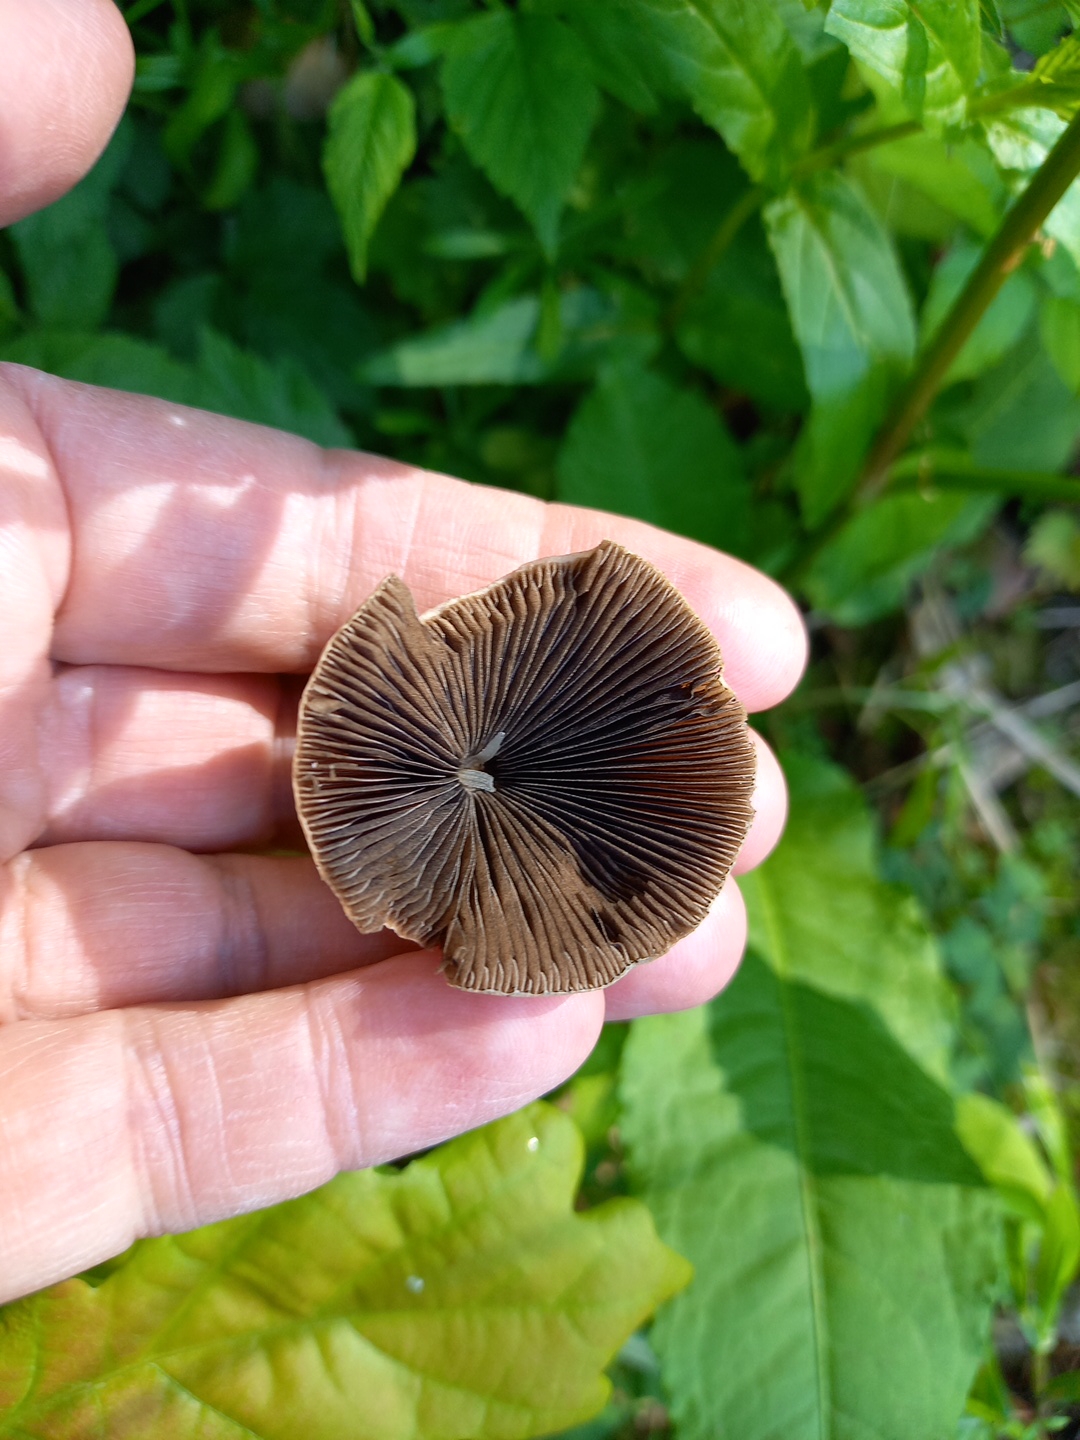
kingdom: Fungi
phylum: Basidiomycota
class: Agaricomycetes
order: Agaricales
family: Psathyrellaceae
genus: Parasola
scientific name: Parasola conopilea
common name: kegle-hjulhat
